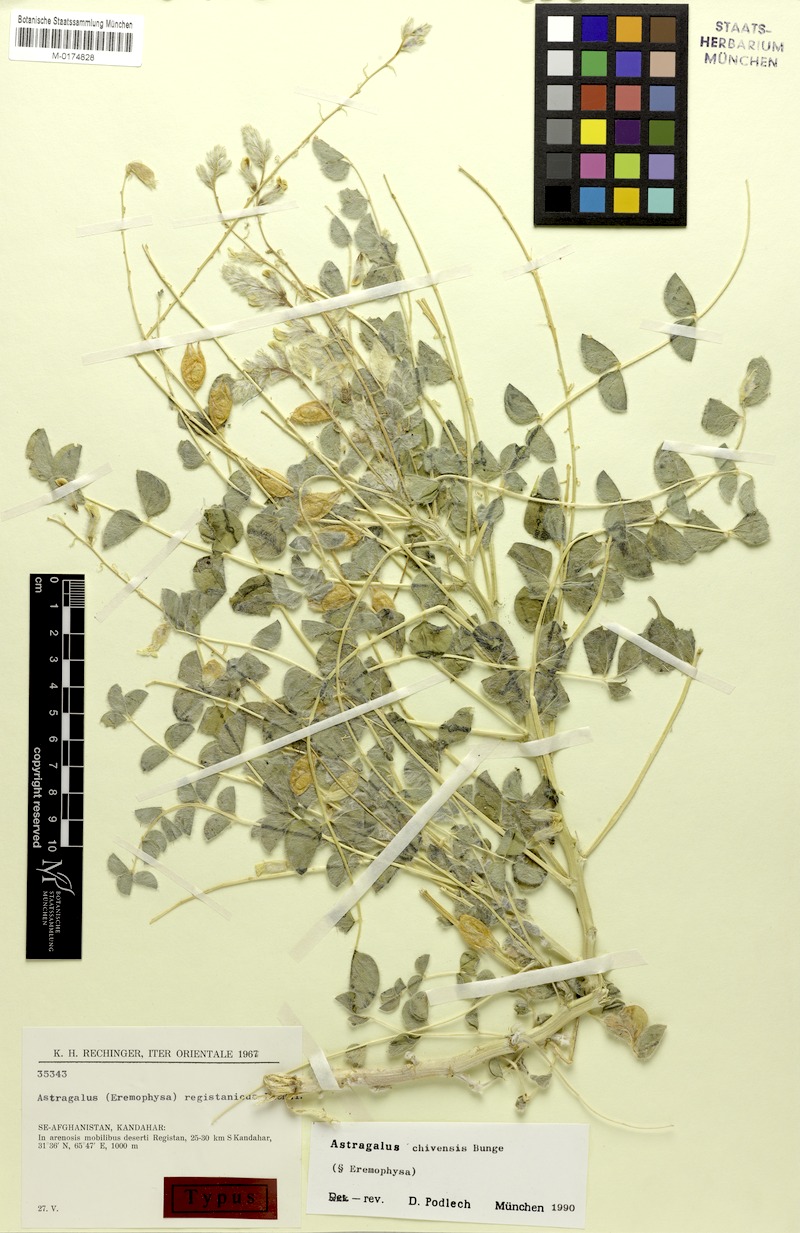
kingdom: Plantae
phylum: Tracheophyta
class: Magnoliopsida
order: Fabales
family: Fabaceae
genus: Astragalus
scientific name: Astragalus chiwensis
